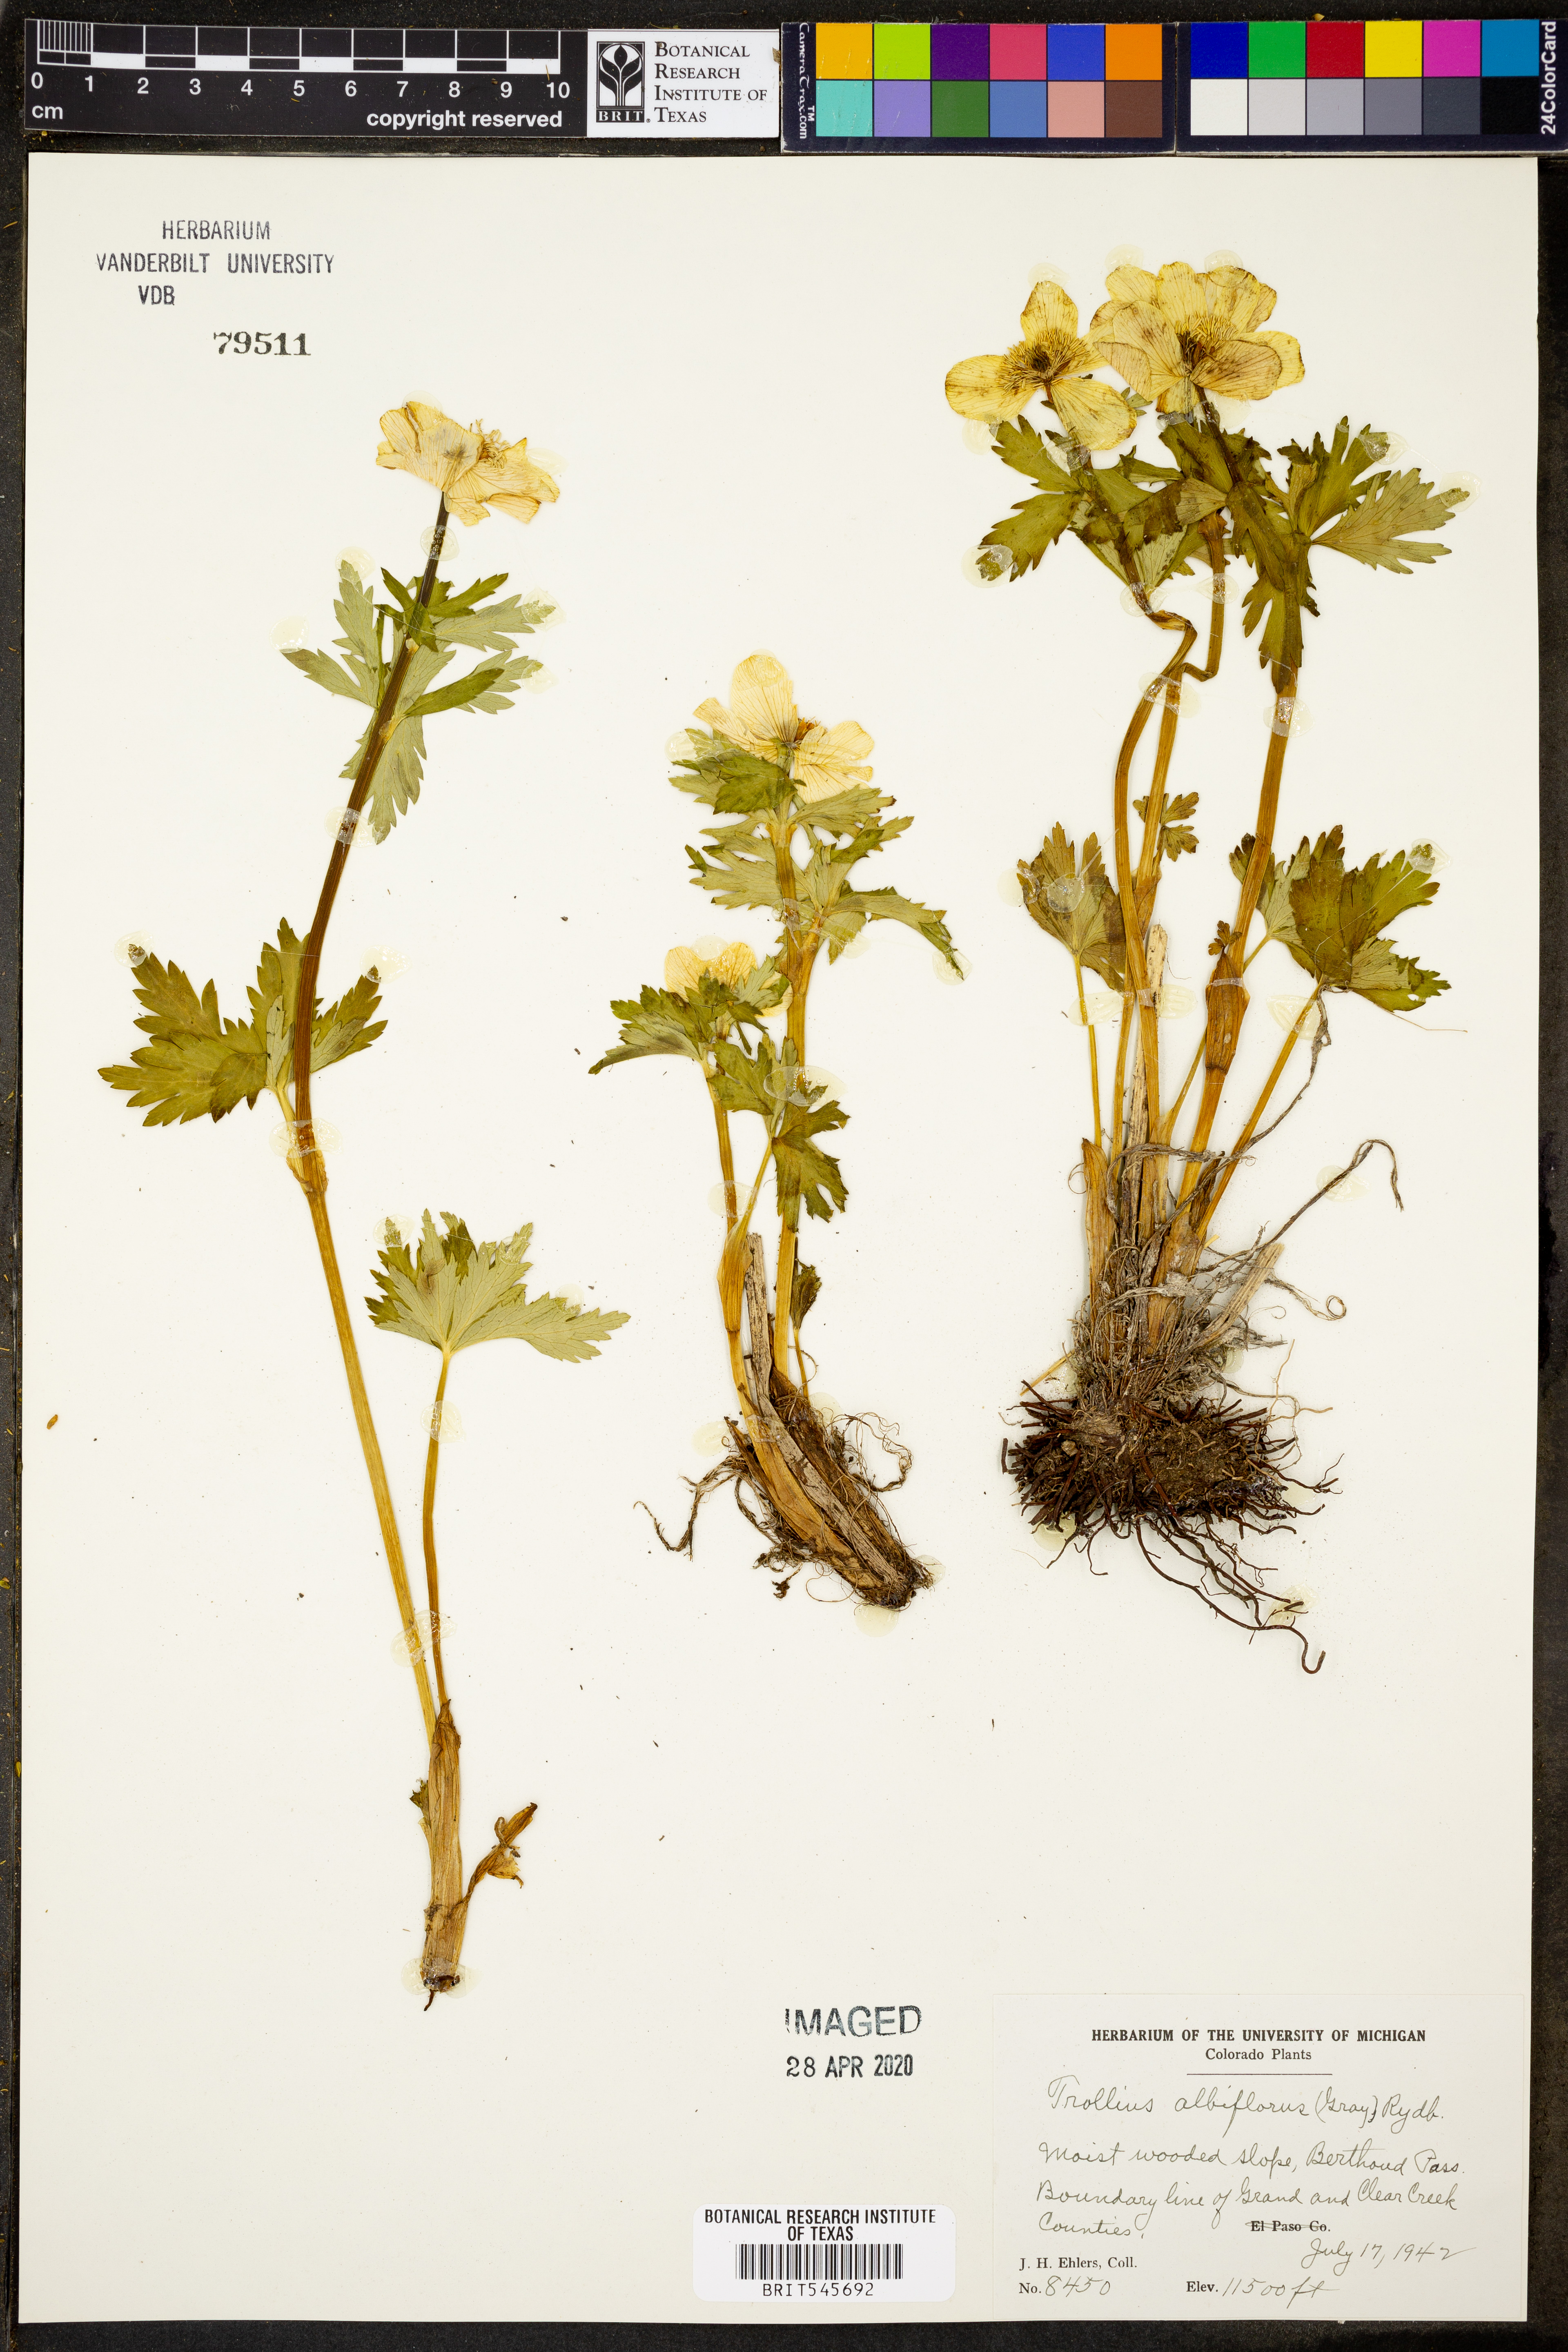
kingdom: Plantae
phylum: Tracheophyta
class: Magnoliopsida
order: Ranunculales
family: Ranunculaceae
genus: Trollius
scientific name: Trollius laxus
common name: American globeflower
